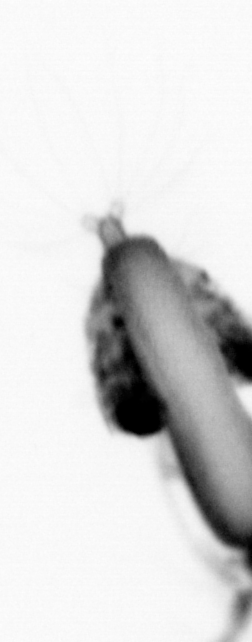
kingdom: Animalia
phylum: Annelida
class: Polychaeta
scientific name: Polychaeta
